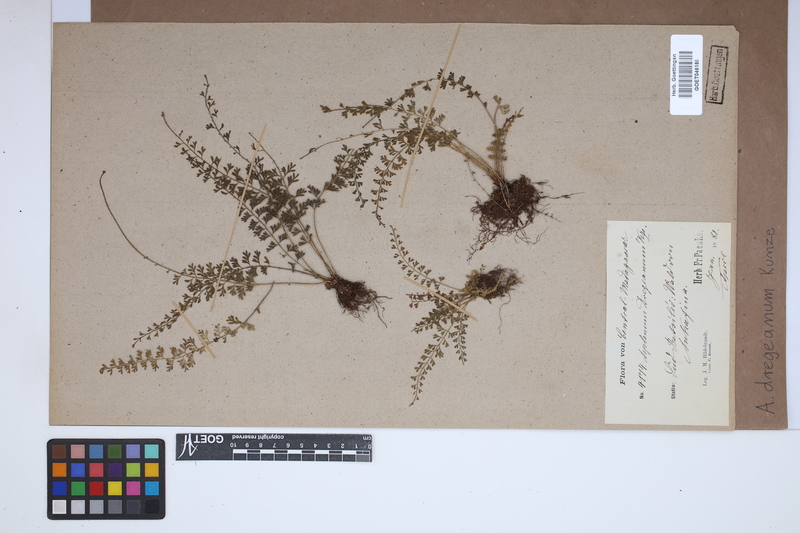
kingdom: Plantae
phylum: Tracheophyta
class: Polypodiopsida
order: Polypodiales
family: Aspleniaceae
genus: Asplenium
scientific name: Asplenium dregeanum
